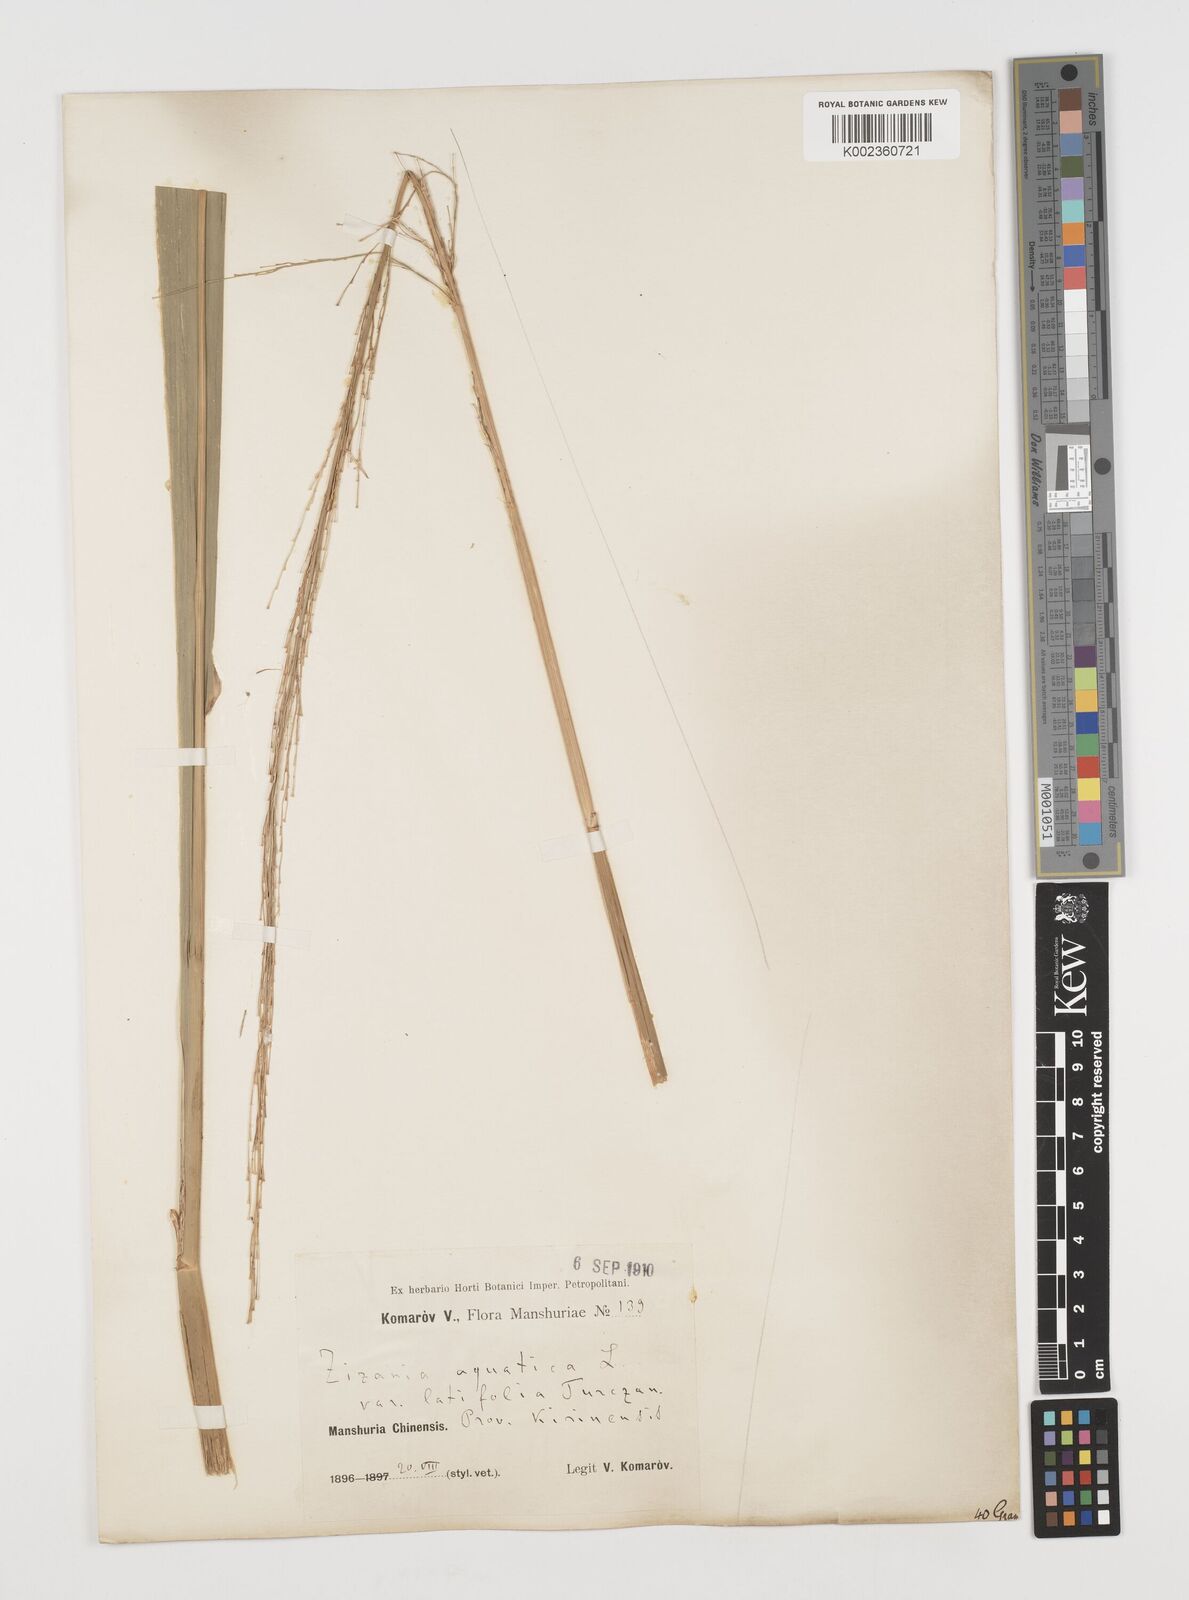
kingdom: Plantae
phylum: Tracheophyta
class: Liliopsida
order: Poales
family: Poaceae
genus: Zizania
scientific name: Zizania latifolia
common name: Manchurian wildrice
